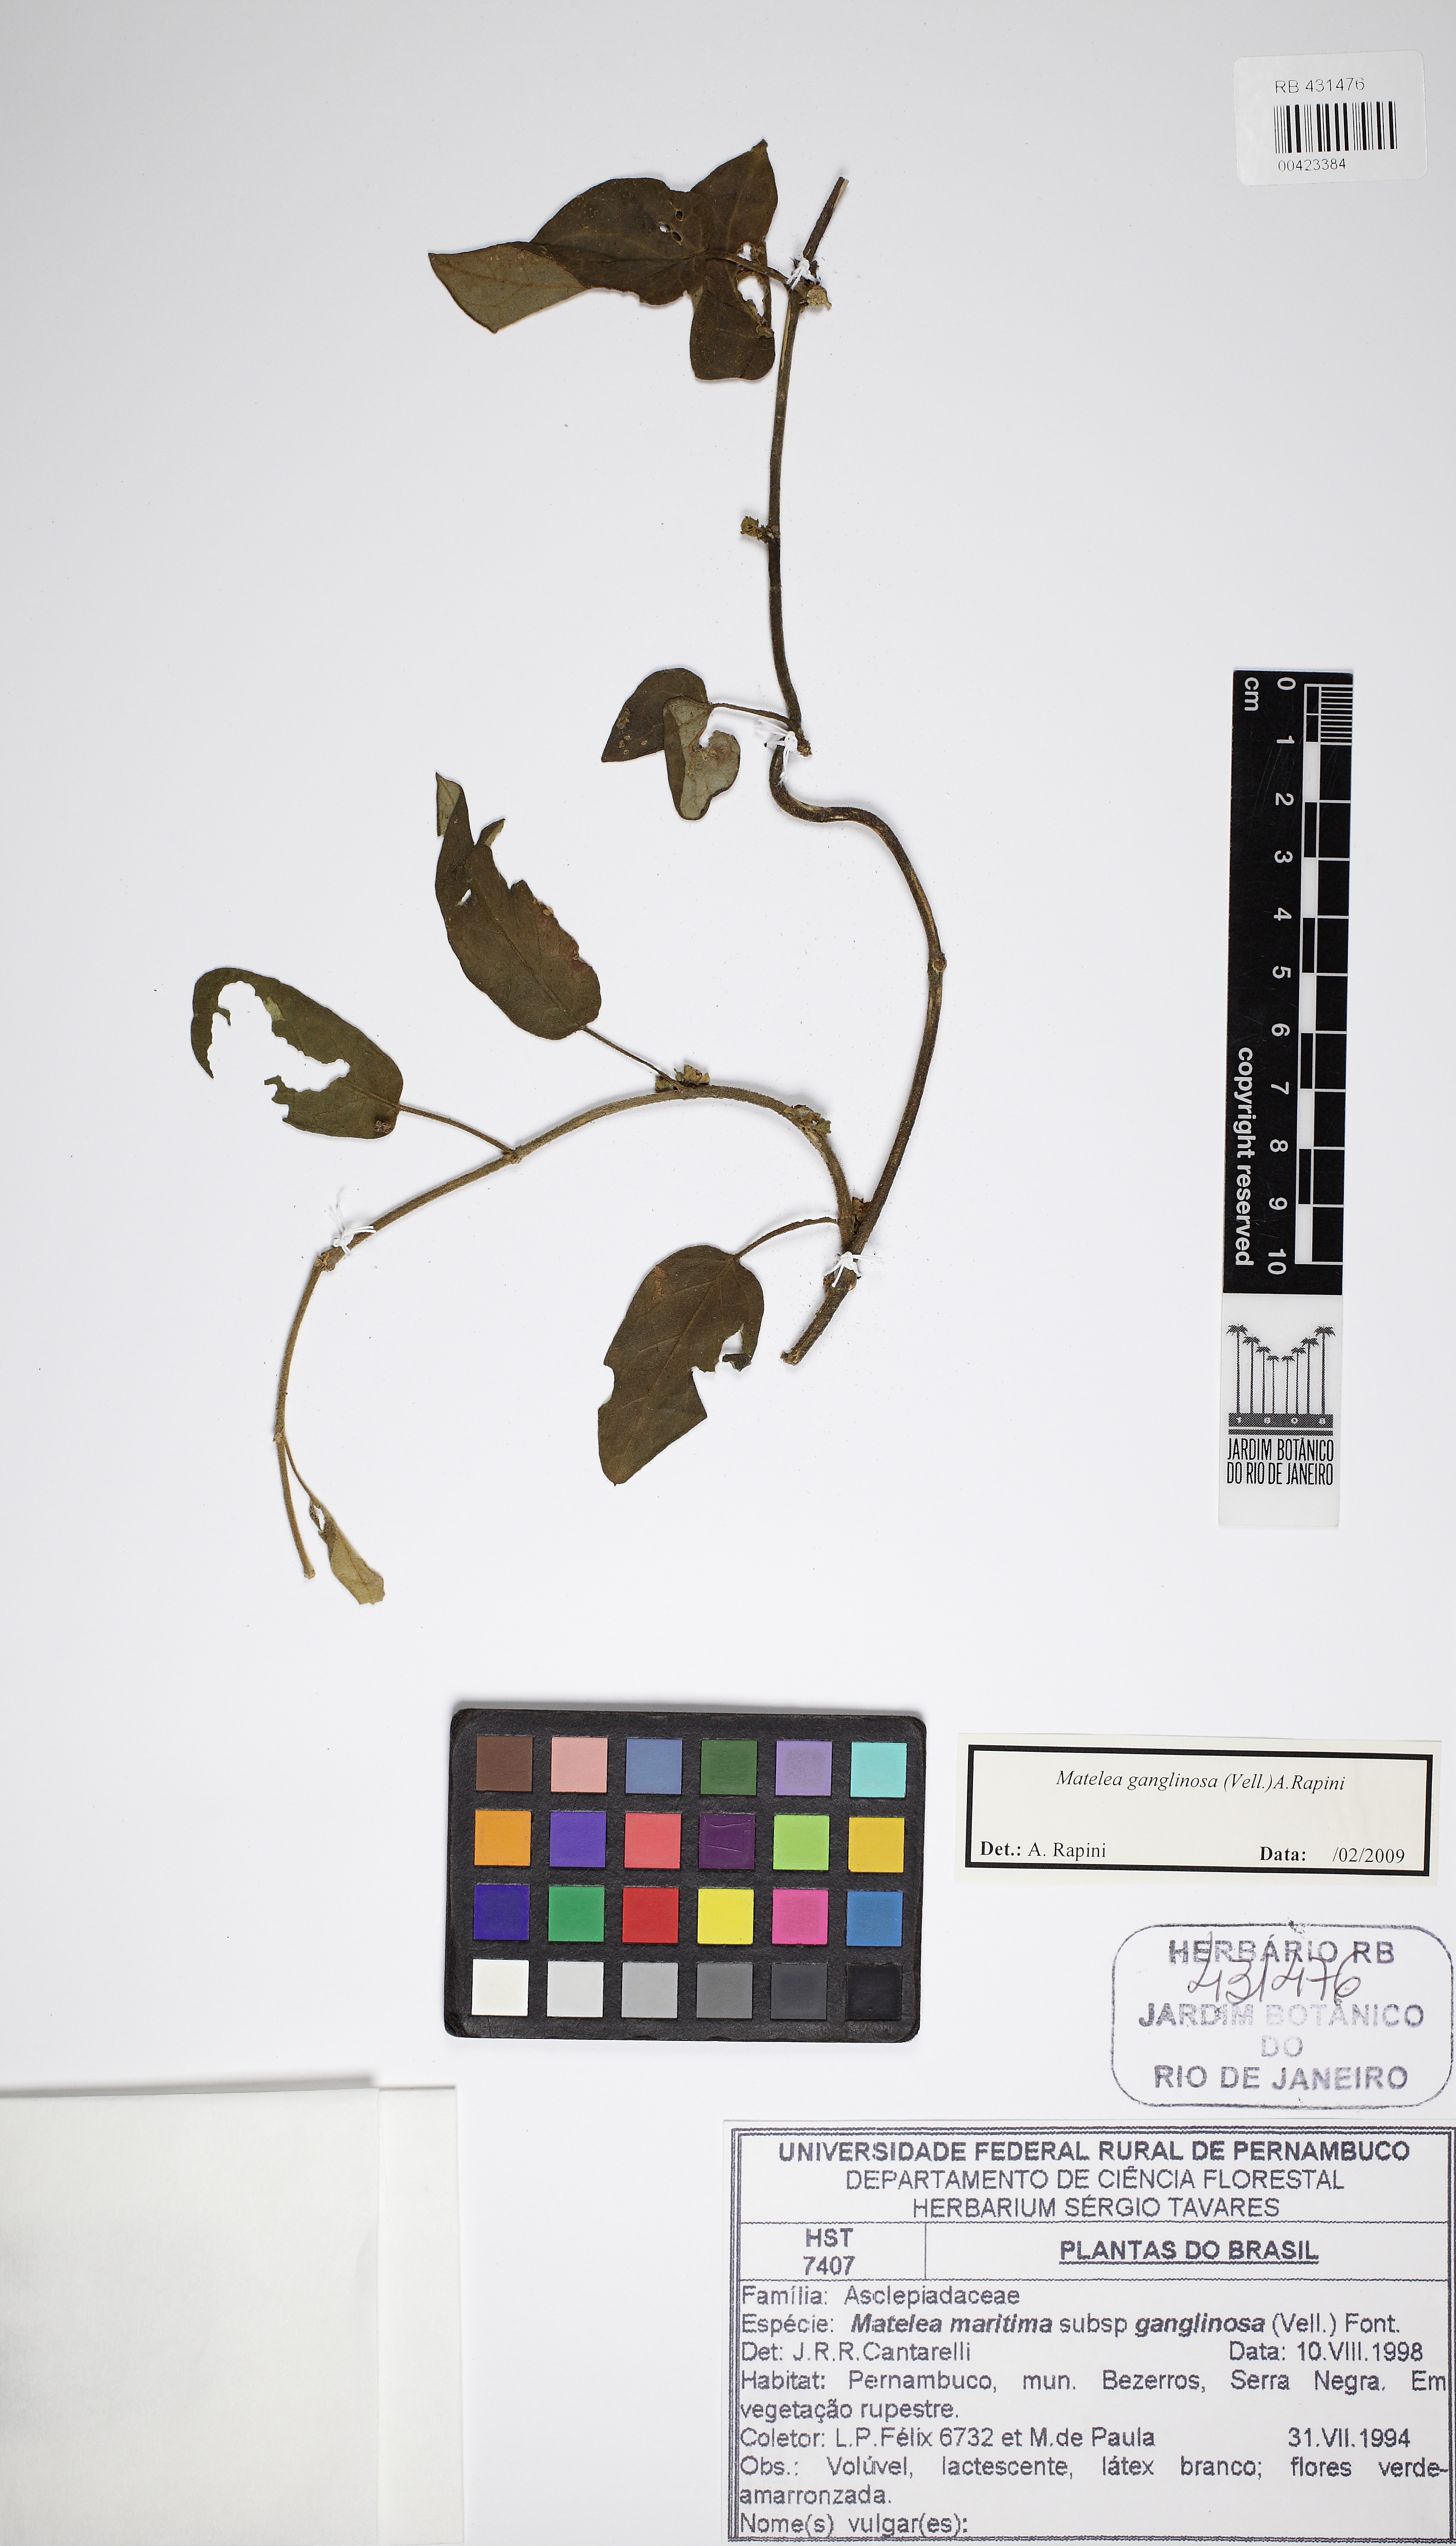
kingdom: Plantae
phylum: Tracheophyta
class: Magnoliopsida
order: Gentianales
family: Apocynaceae
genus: Ibatia
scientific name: Ibatia ganglinosa
